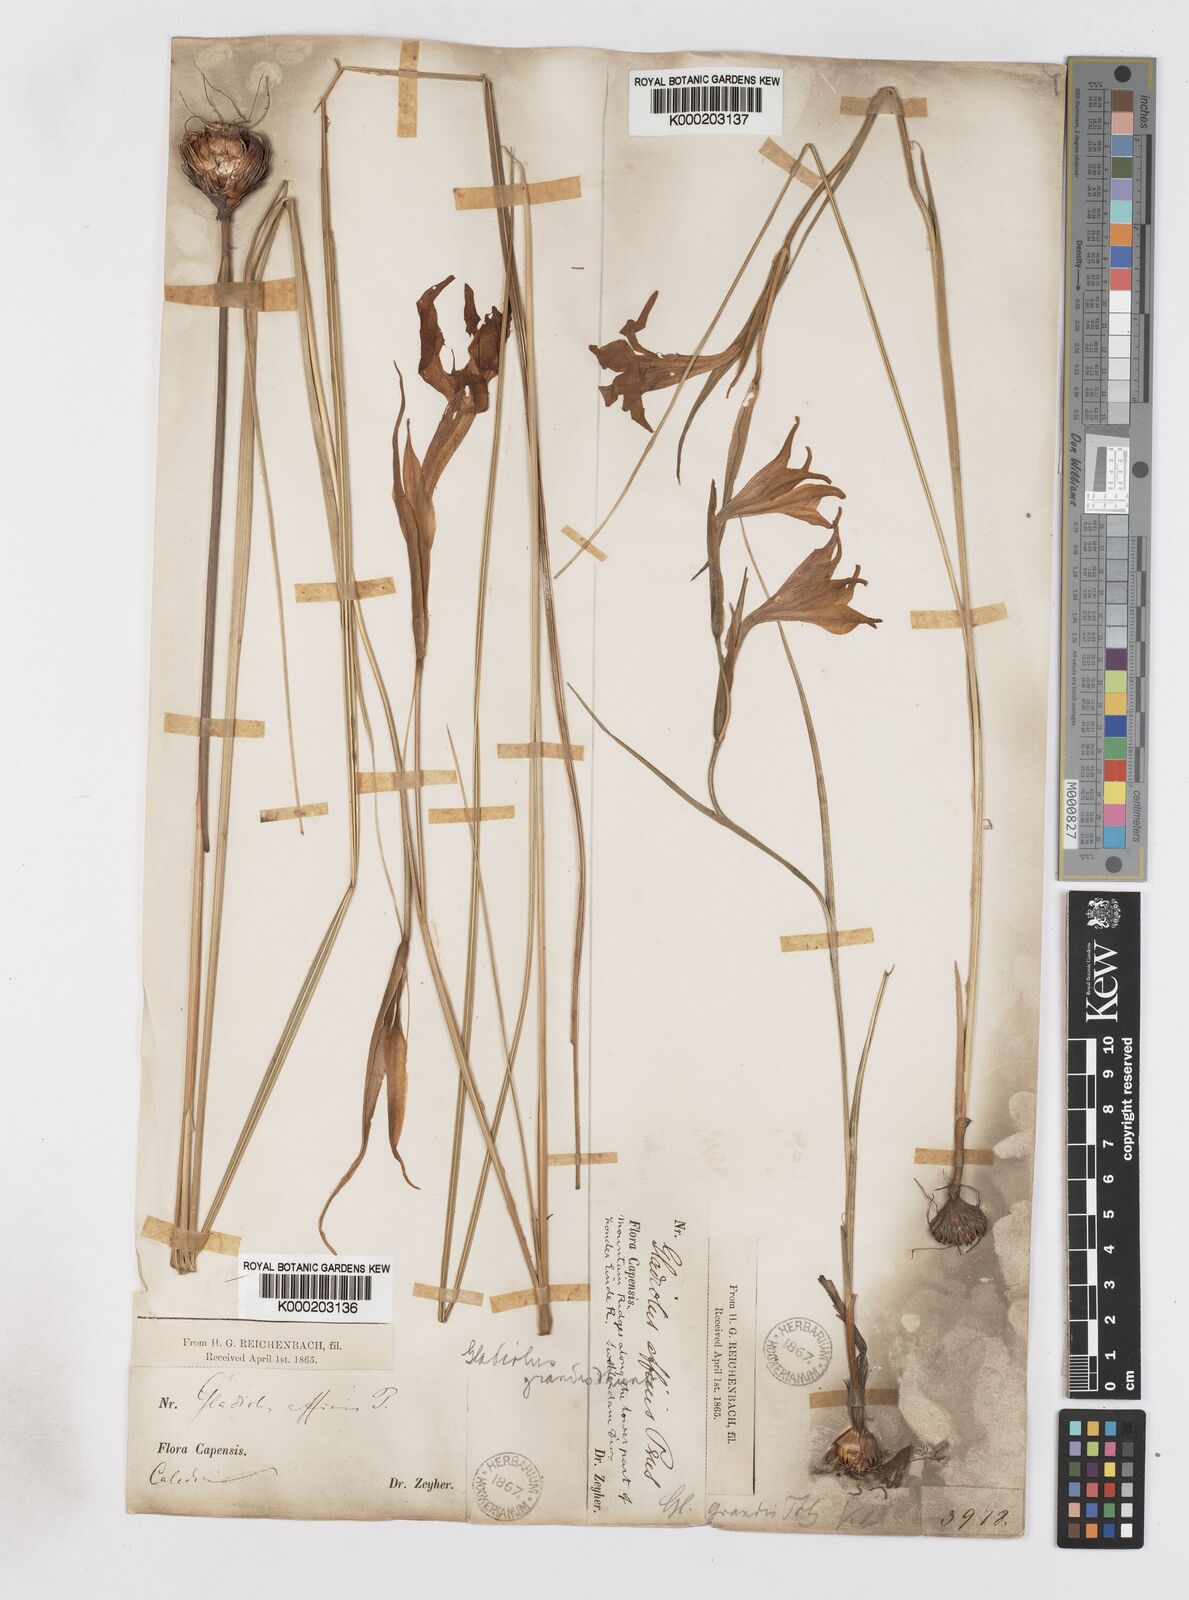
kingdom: Plantae
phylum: Tracheophyta
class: Liliopsida
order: Asparagales
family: Iridaceae
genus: Gladiolus
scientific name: Gladiolus liliaceus
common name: Large brown afrikaner
